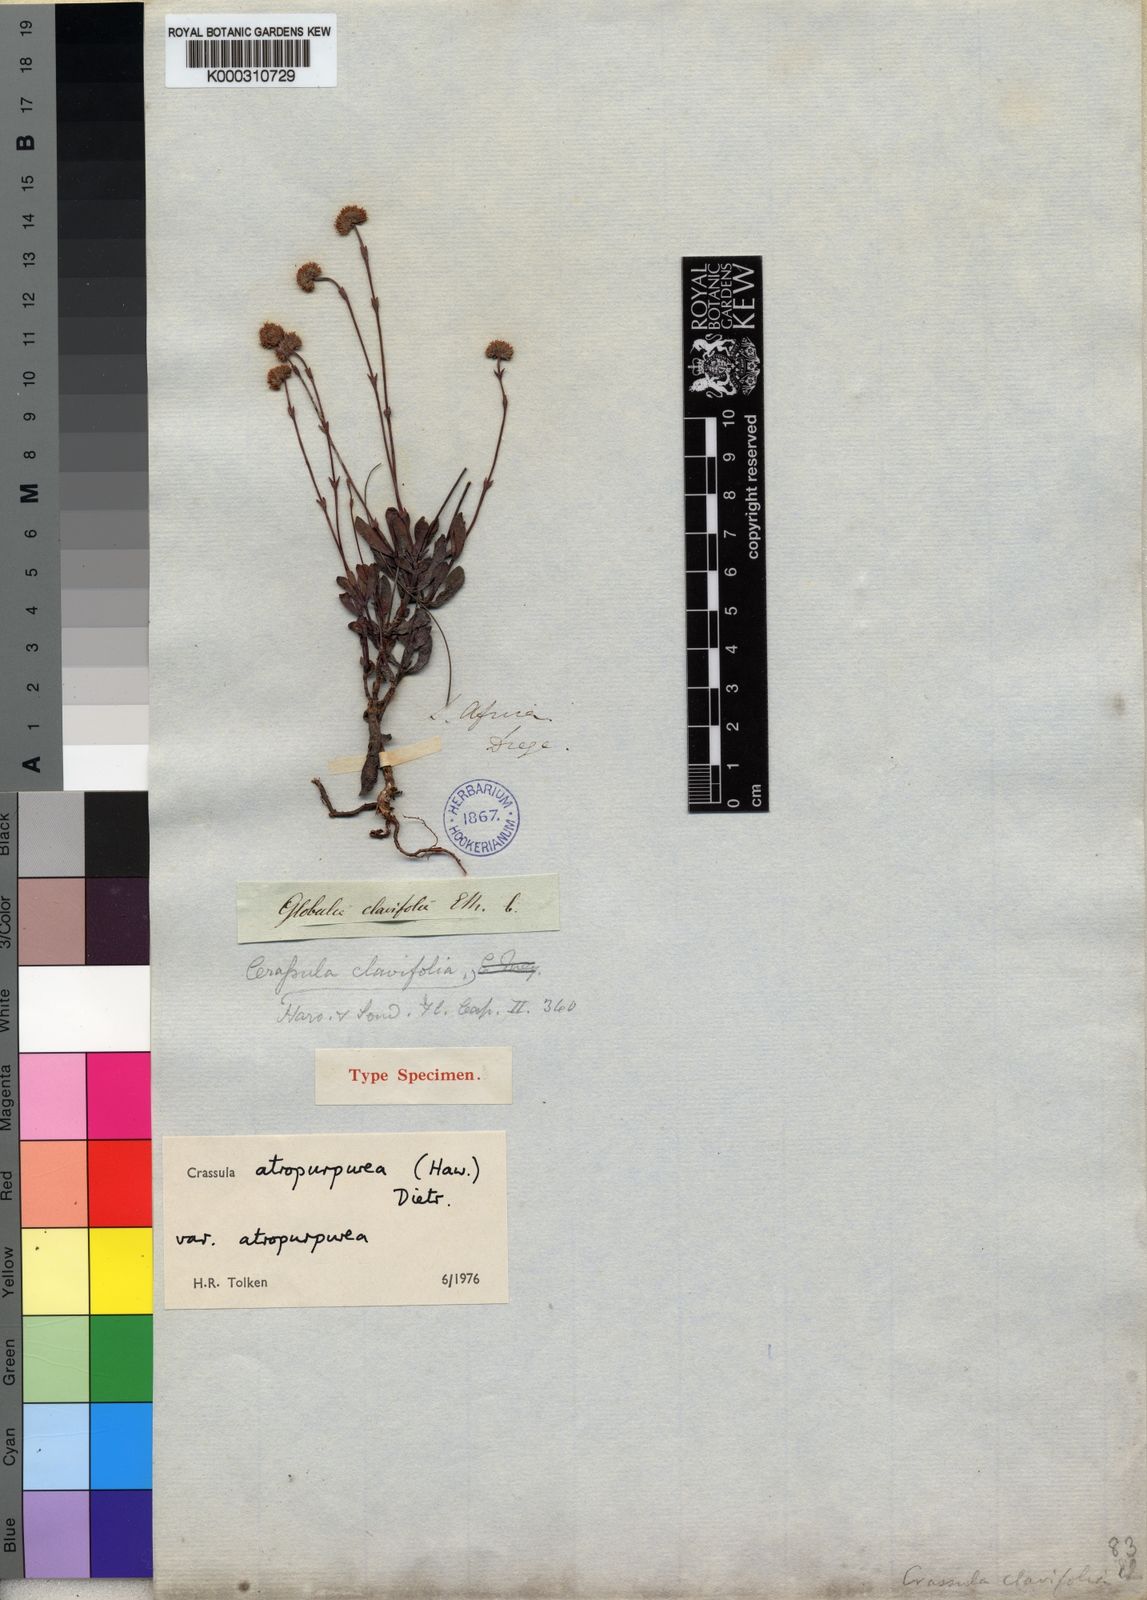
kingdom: Plantae
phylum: Tracheophyta
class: Magnoliopsida
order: Saxifragales
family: Crassulaceae
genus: Crassula
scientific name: Crassula atropurpurea
